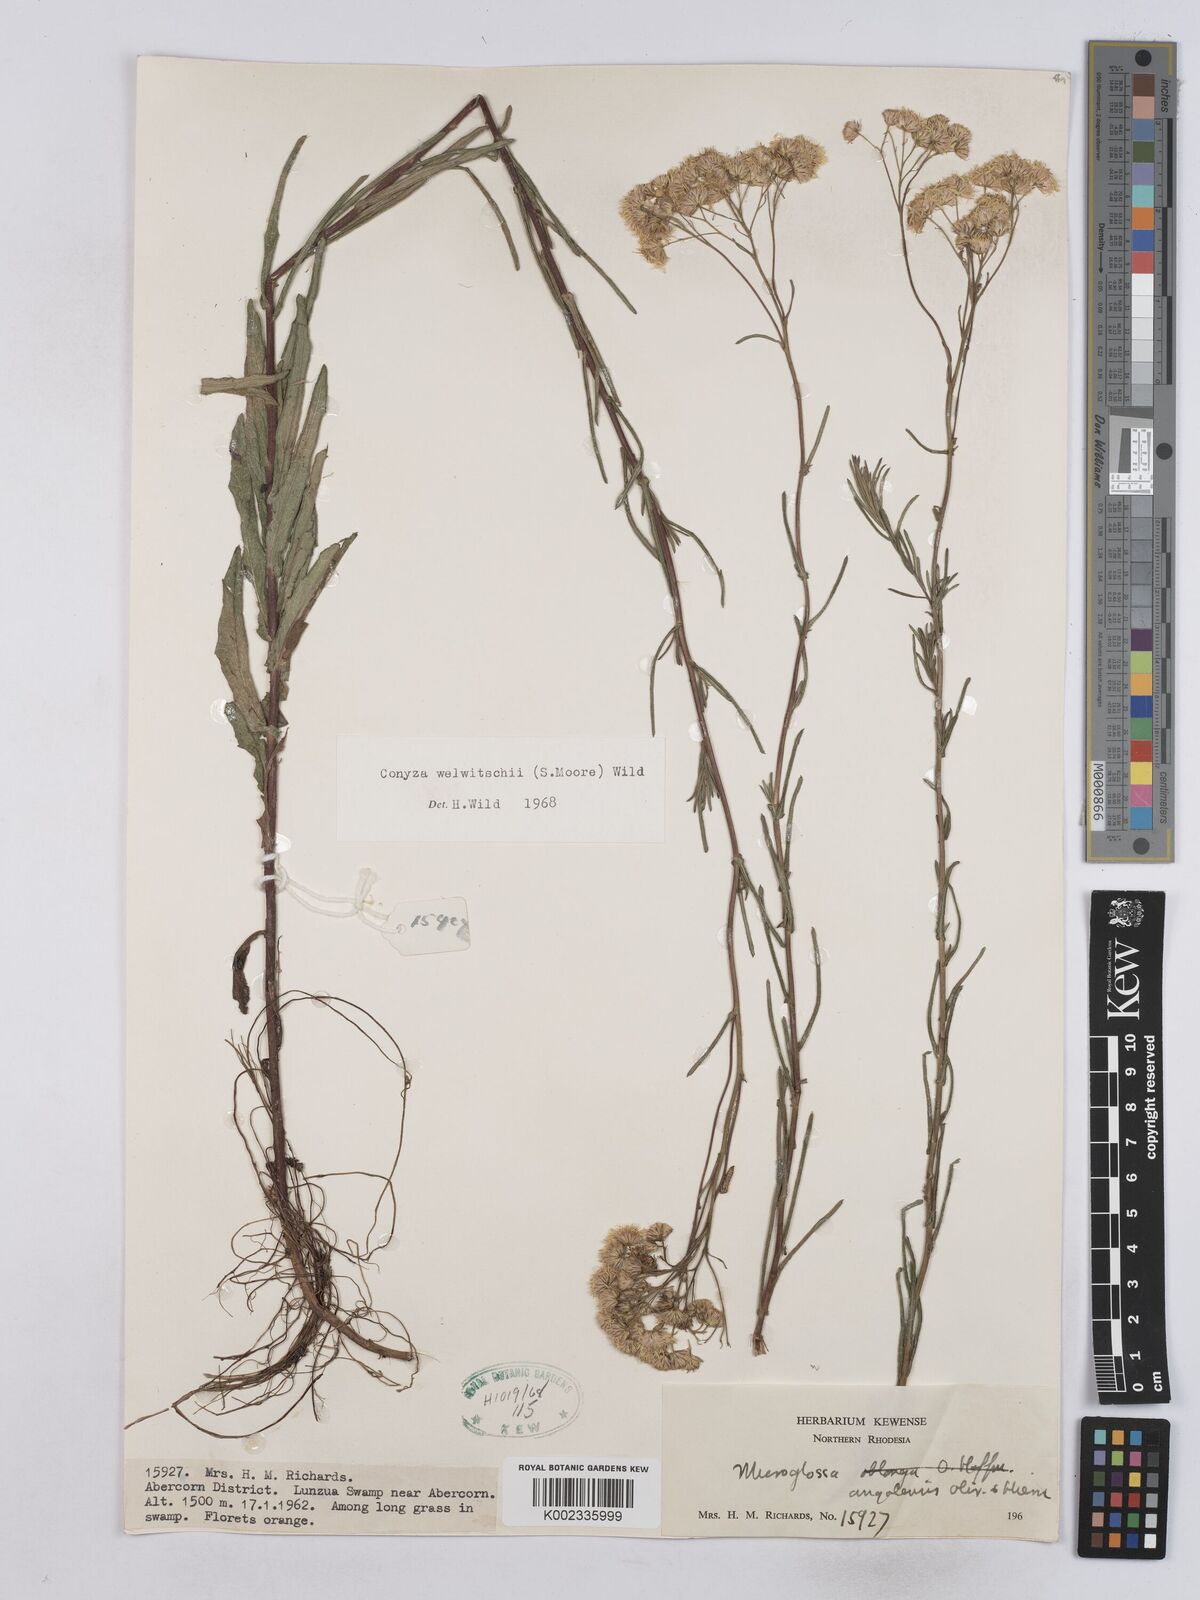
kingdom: Plantae
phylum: Tracheophyta
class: Magnoliopsida
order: Asterales
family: Asteraceae
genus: Nidorella
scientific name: Nidorella welwitschii
